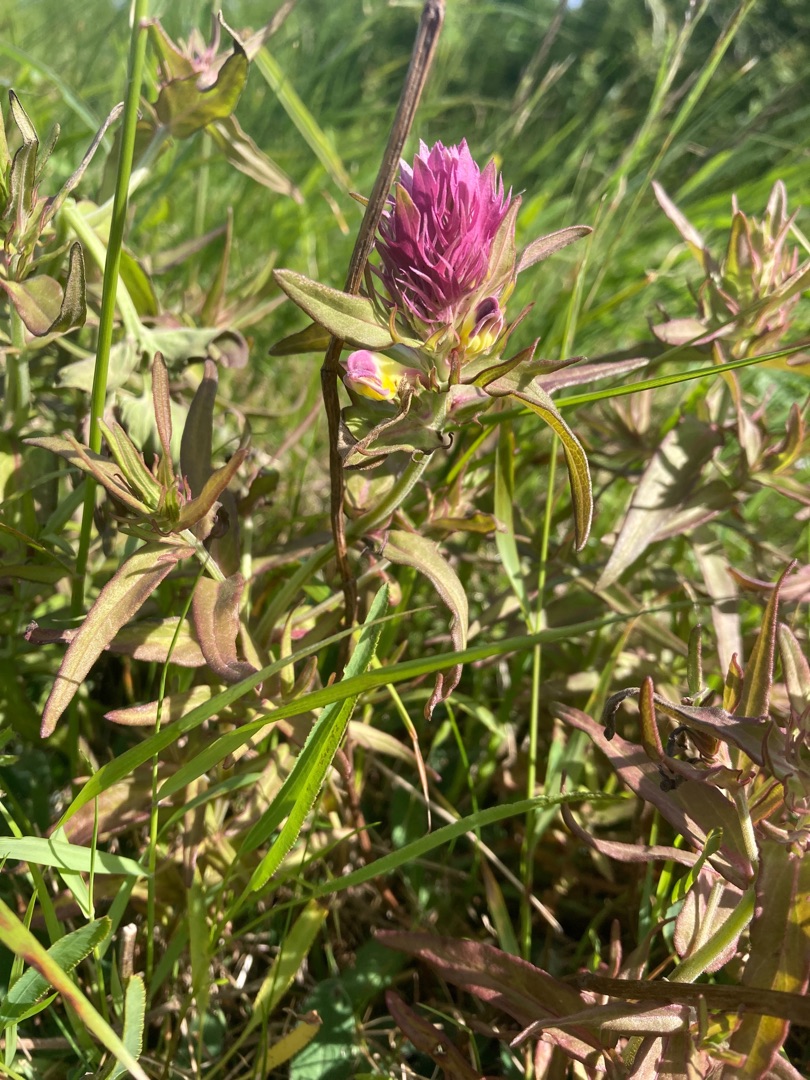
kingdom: Plantae
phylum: Tracheophyta
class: Magnoliopsida
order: Lamiales
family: Orobanchaceae
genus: Melampyrum
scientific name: Melampyrum arvense
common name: Ager-kohvede
